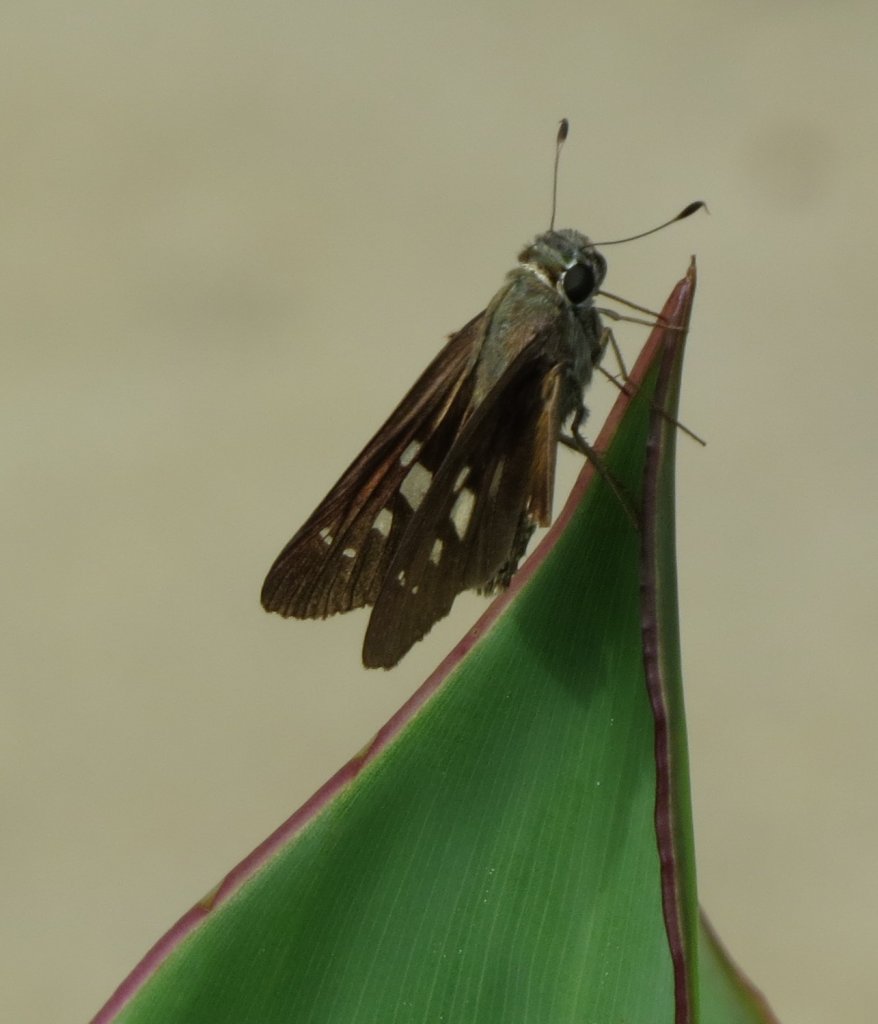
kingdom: Animalia
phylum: Arthropoda
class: Insecta
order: Lepidoptera
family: Hesperiidae
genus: Calpodes
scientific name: Calpodes ethlius
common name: Brazilian Skipper
